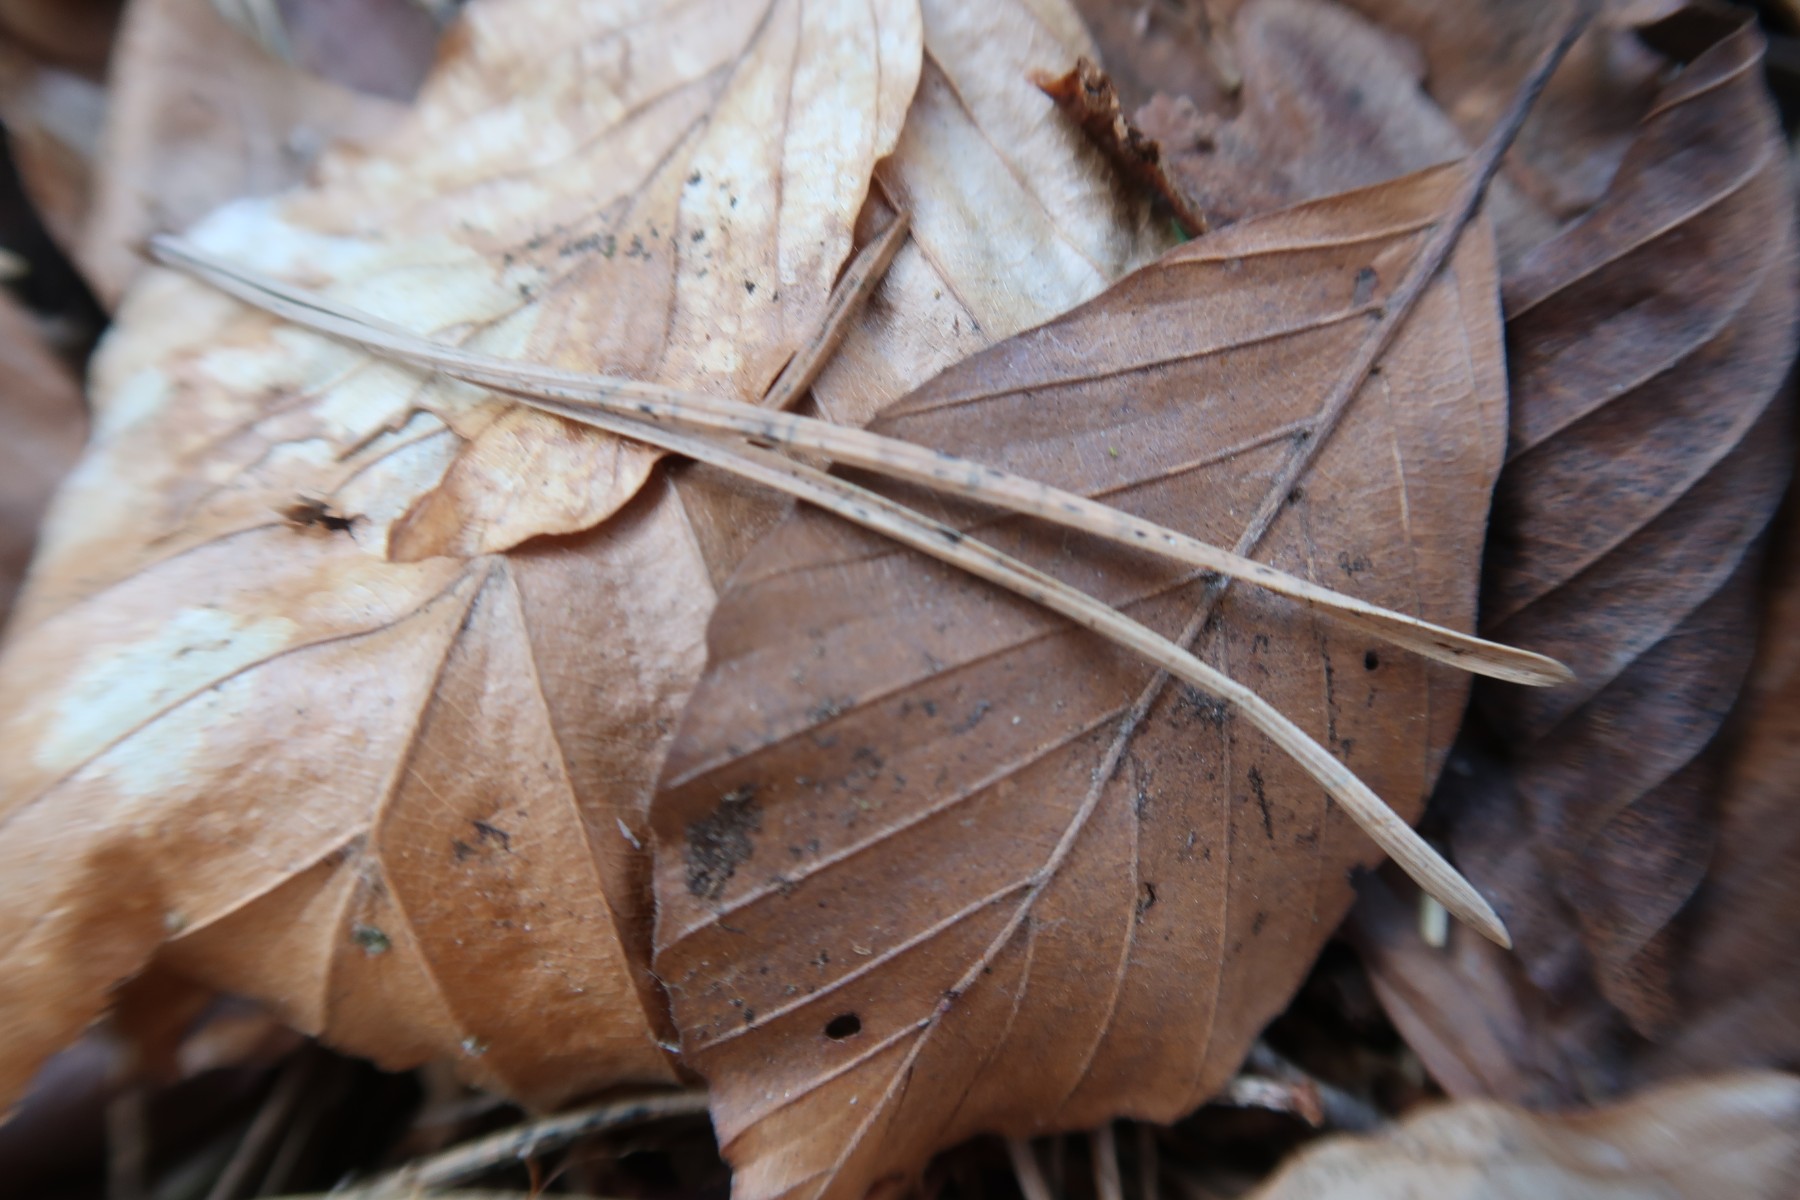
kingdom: Fungi
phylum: Ascomycota
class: Leotiomycetes
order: Rhytismatales
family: Rhytismataceae
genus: Lophodermium
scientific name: Lophodermium pinastri
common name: fyrre-fureplet
